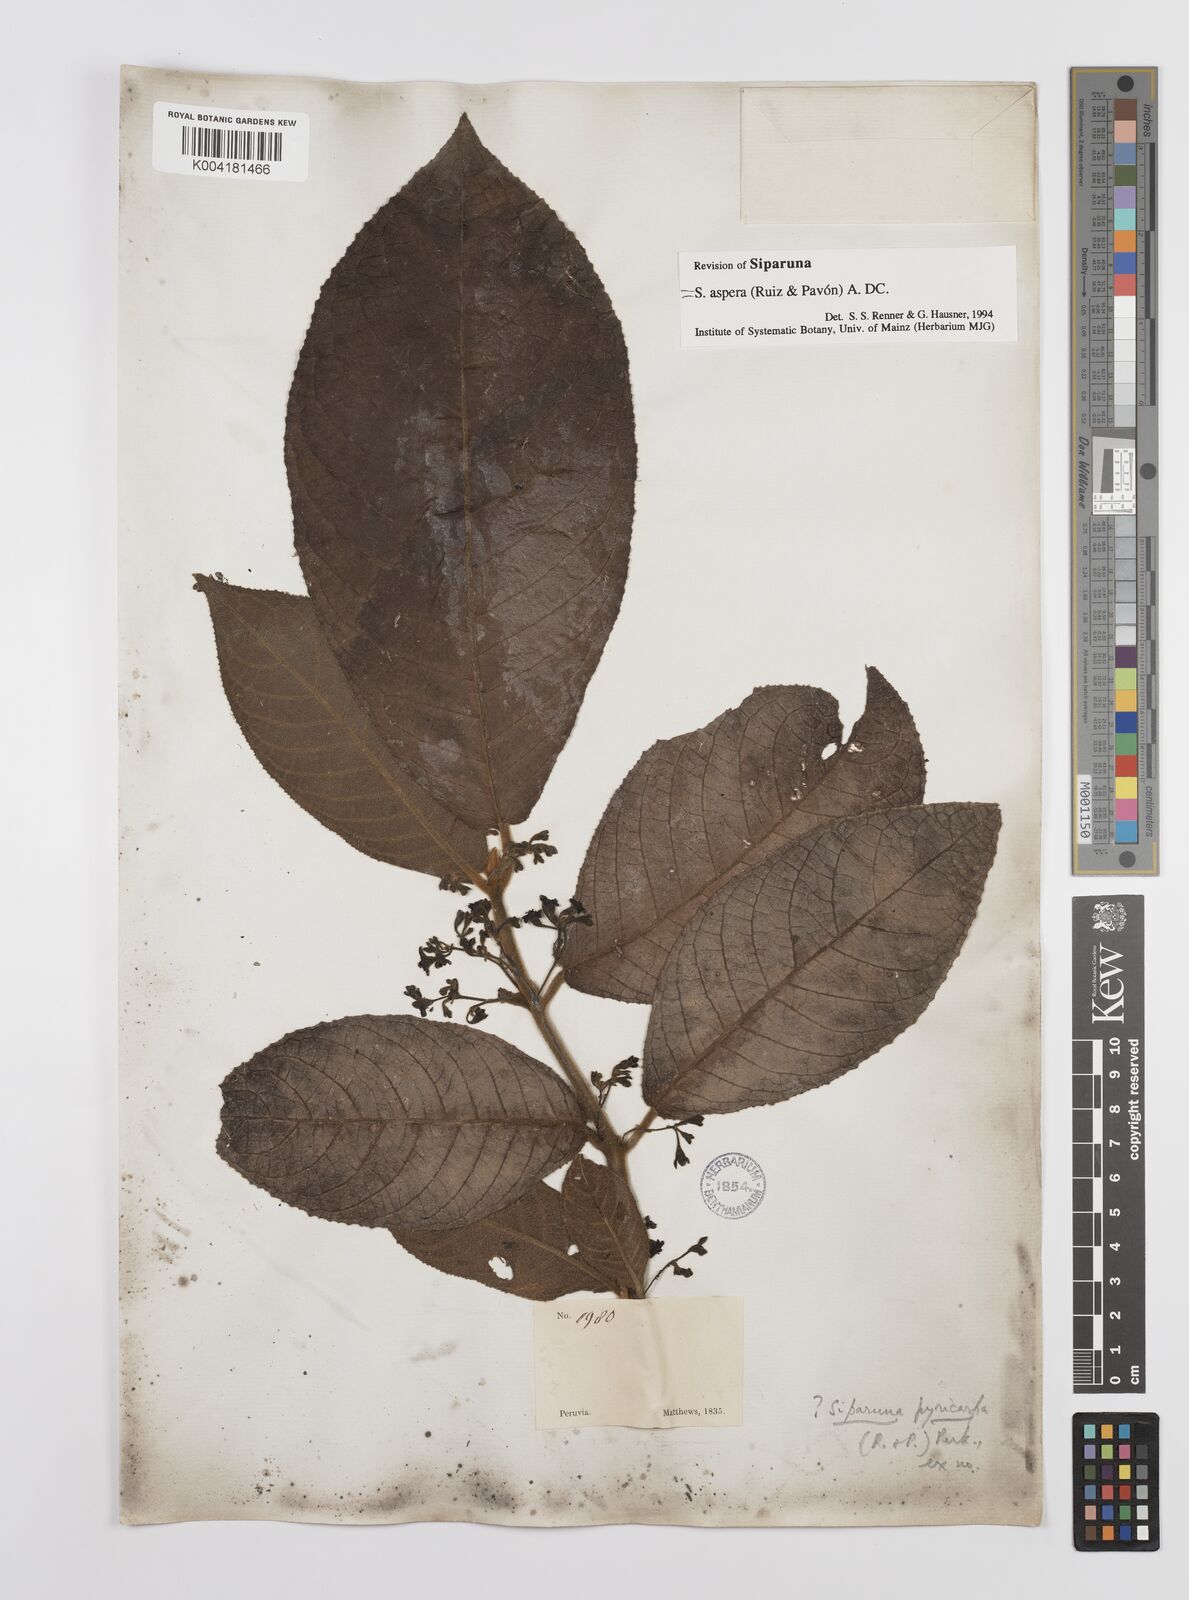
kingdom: Plantae
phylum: Tracheophyta
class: Magnoliopsida
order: Laurales
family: Siparunaceae
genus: Siparuna
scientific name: Siparuna aspera
